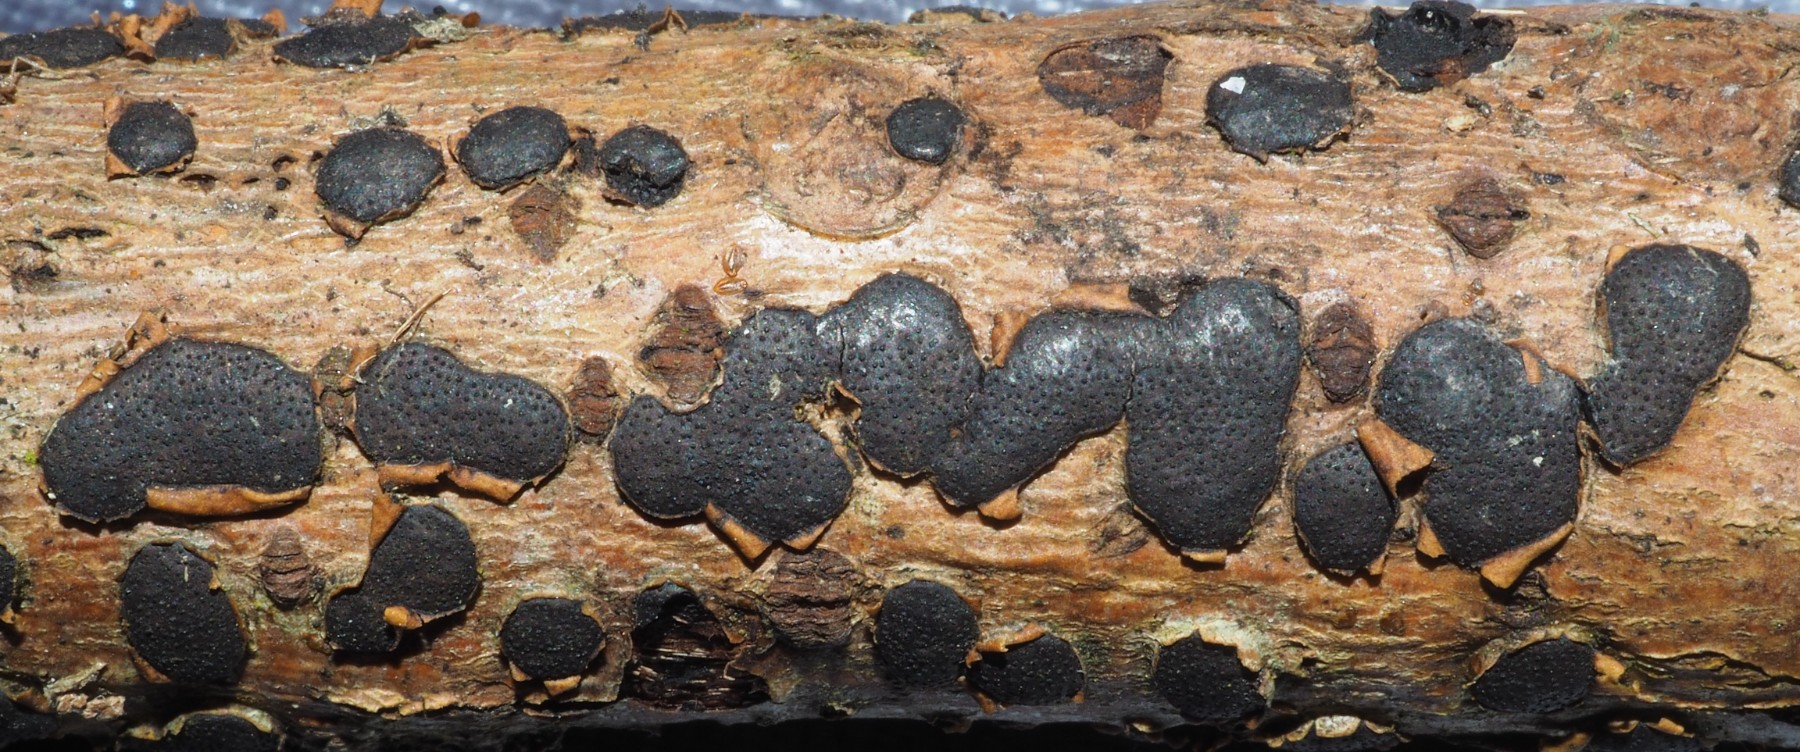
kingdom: Fungi
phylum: Ascomycota
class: Sordariomycetes
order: Xylariales
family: Diatrypaceae
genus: Diatrype
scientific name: Diatrype bullata
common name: pile-kulskorpe
